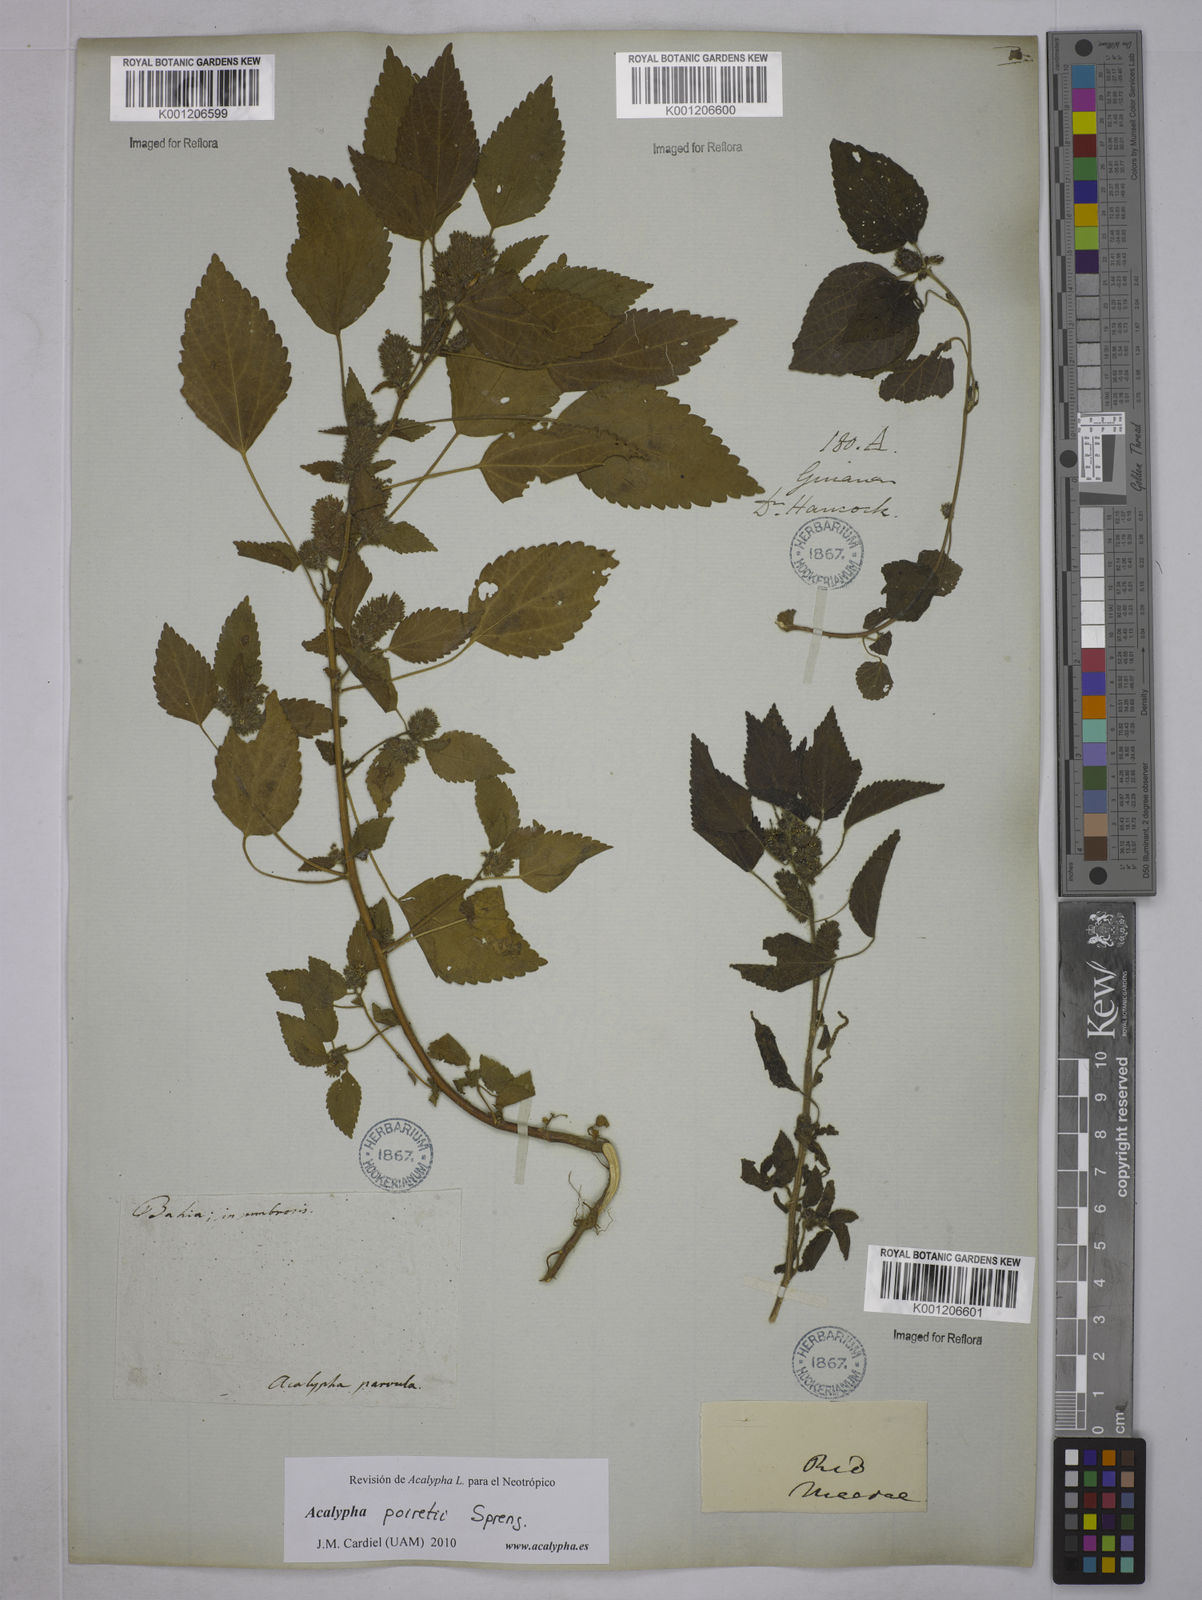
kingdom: Plantae
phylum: Tracheophyta
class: Magnoliopsida
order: Malpighiales
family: Euphorbiaceae
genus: Acalypha
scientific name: Acalypha poiretii
